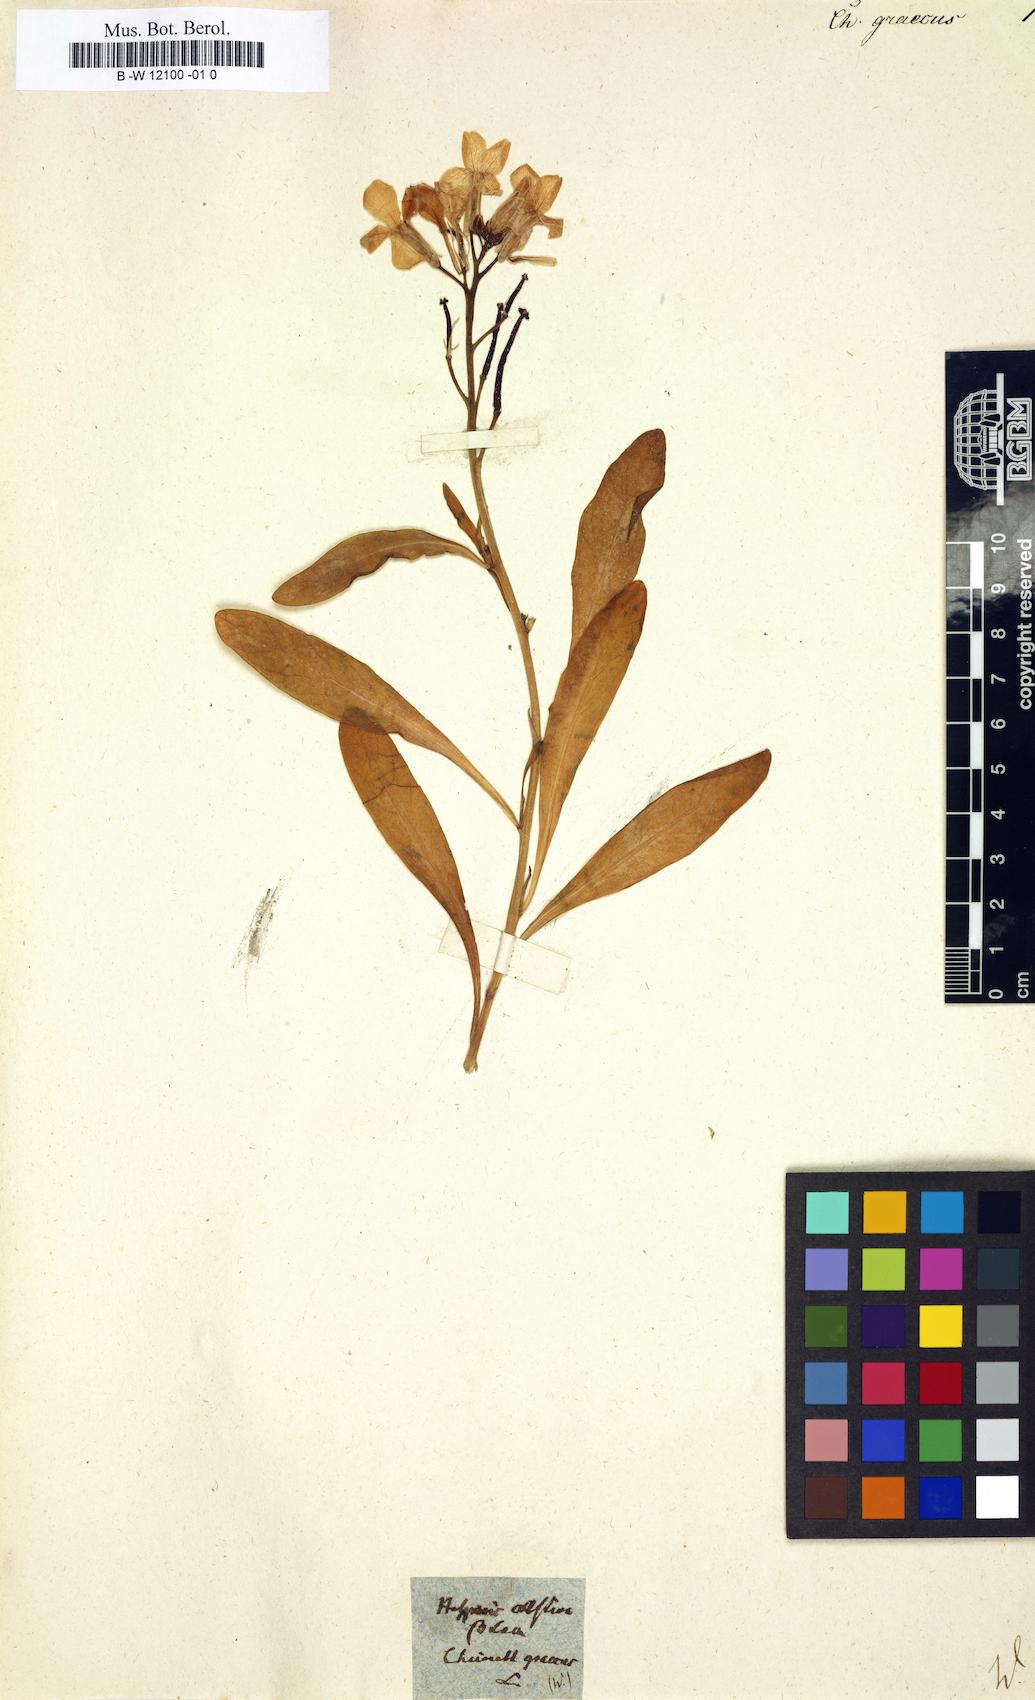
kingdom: Plantae
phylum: Tracheophyta
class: Magnoliopsida
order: Brassicales
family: Brassicaceae
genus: Matthiola
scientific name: Matthiola incana
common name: Hoary stock
